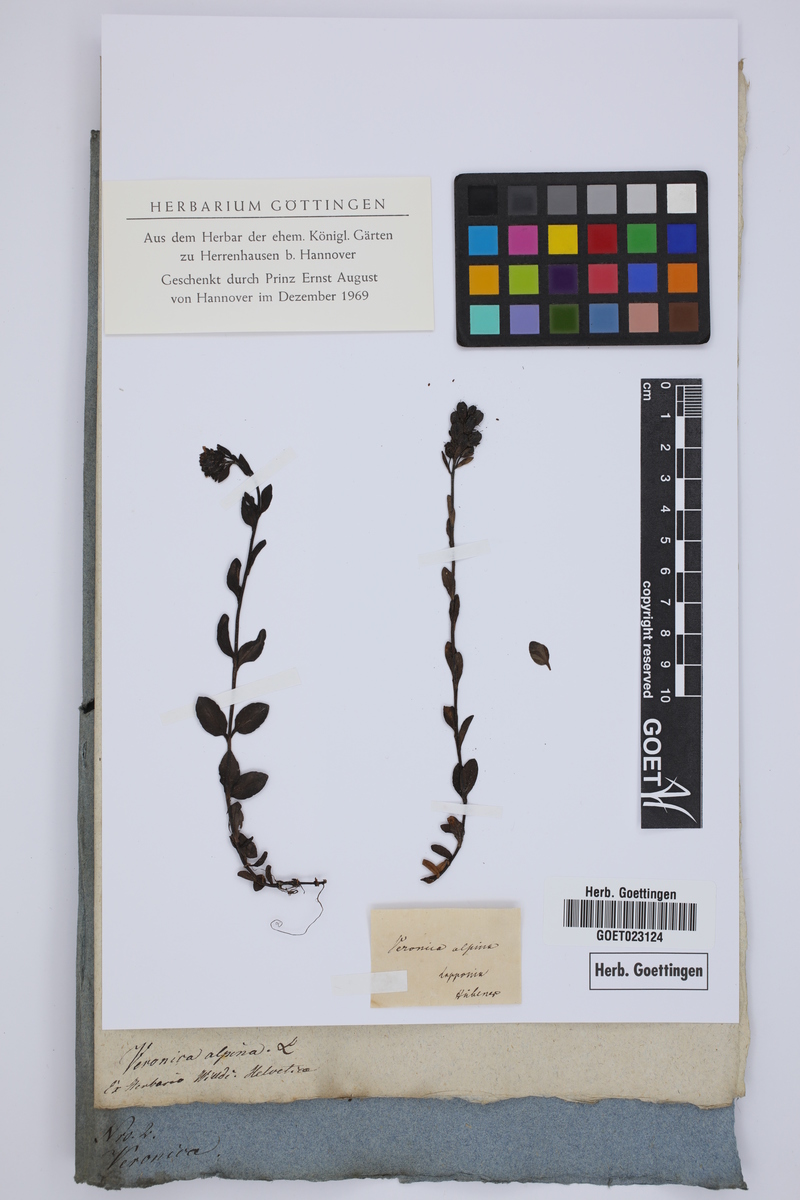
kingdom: Plantae
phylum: Tracheophyta
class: Magnoliopsida
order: Lamiales
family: Plantaginaceae
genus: Veronica
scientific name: Veronica alpina
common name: Alpine speedwell
